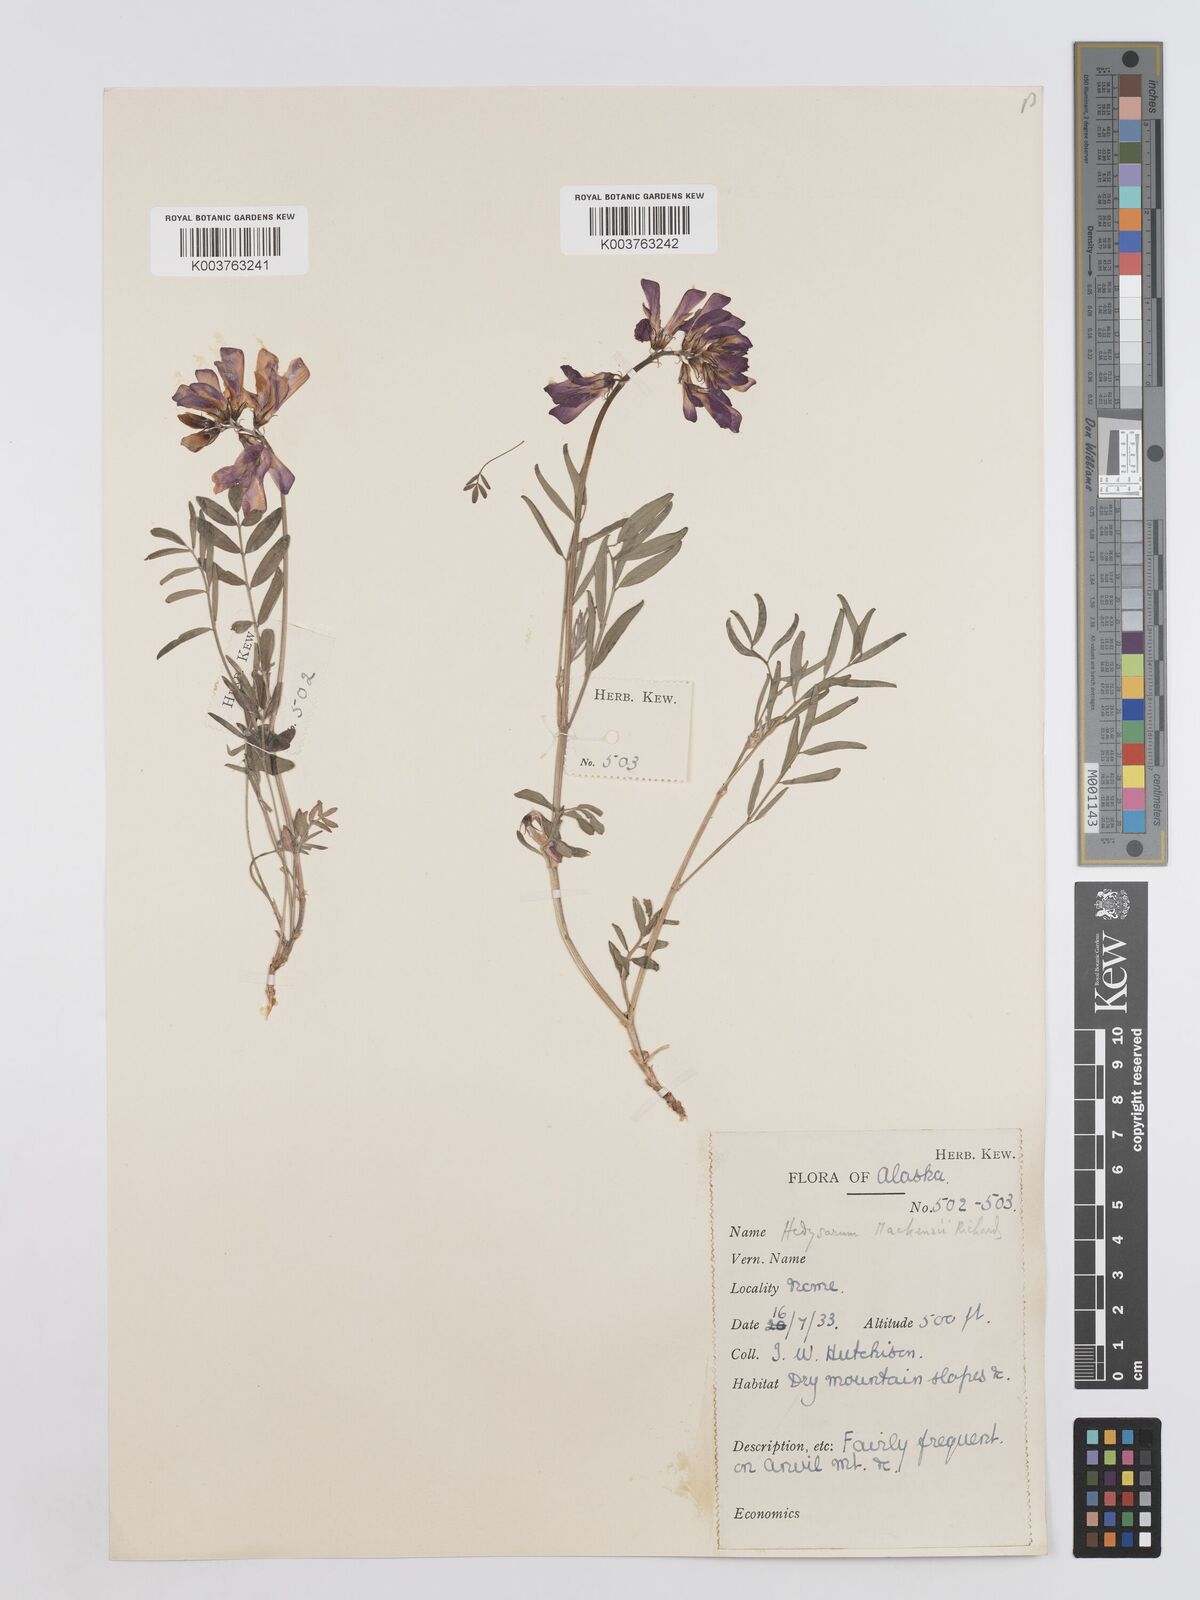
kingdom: Plantae
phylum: Tracheophyta
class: Magnoliopsida
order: Fabales
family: Fabaceae
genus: Hedysarum
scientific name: Hedysarum boreale
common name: Northern sweet-vetch
